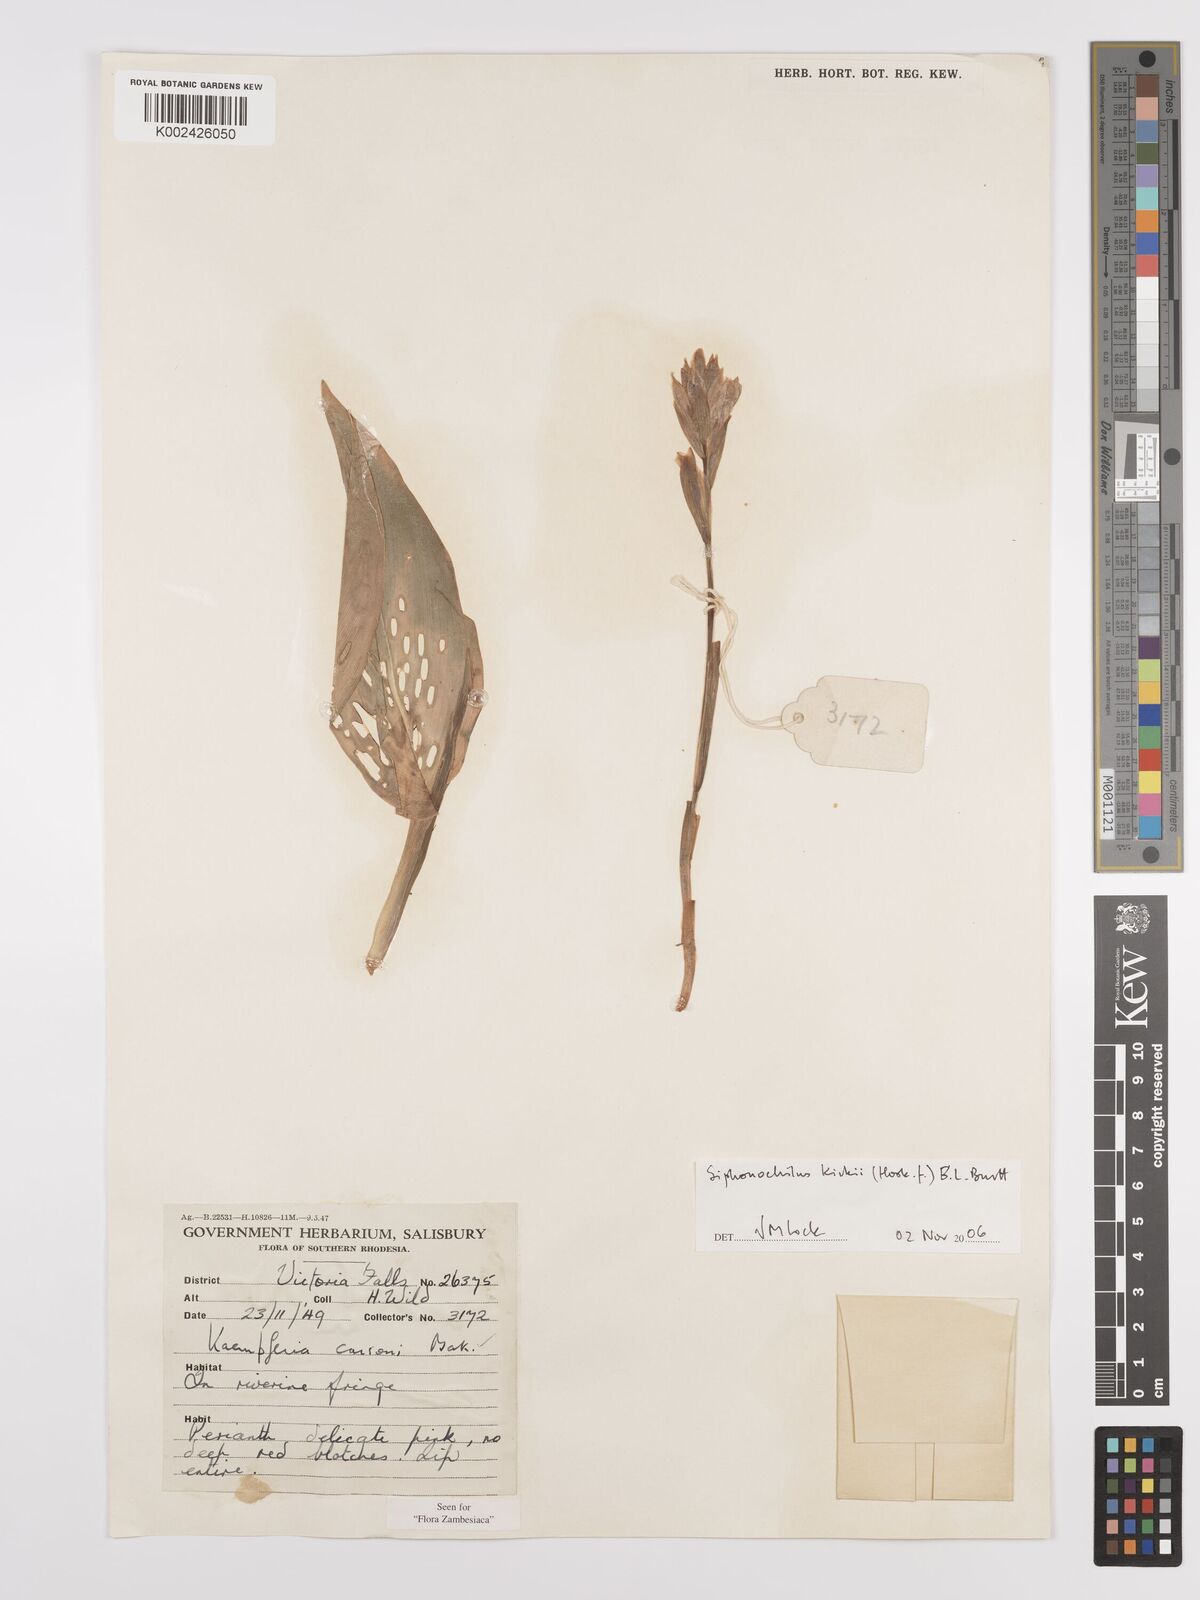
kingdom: Plantae
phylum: Tracheophyta
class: Liliopsida
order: Zingiberales
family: Zingiberaceae
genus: Siphonochilus
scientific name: Siphonochilus kirkii
